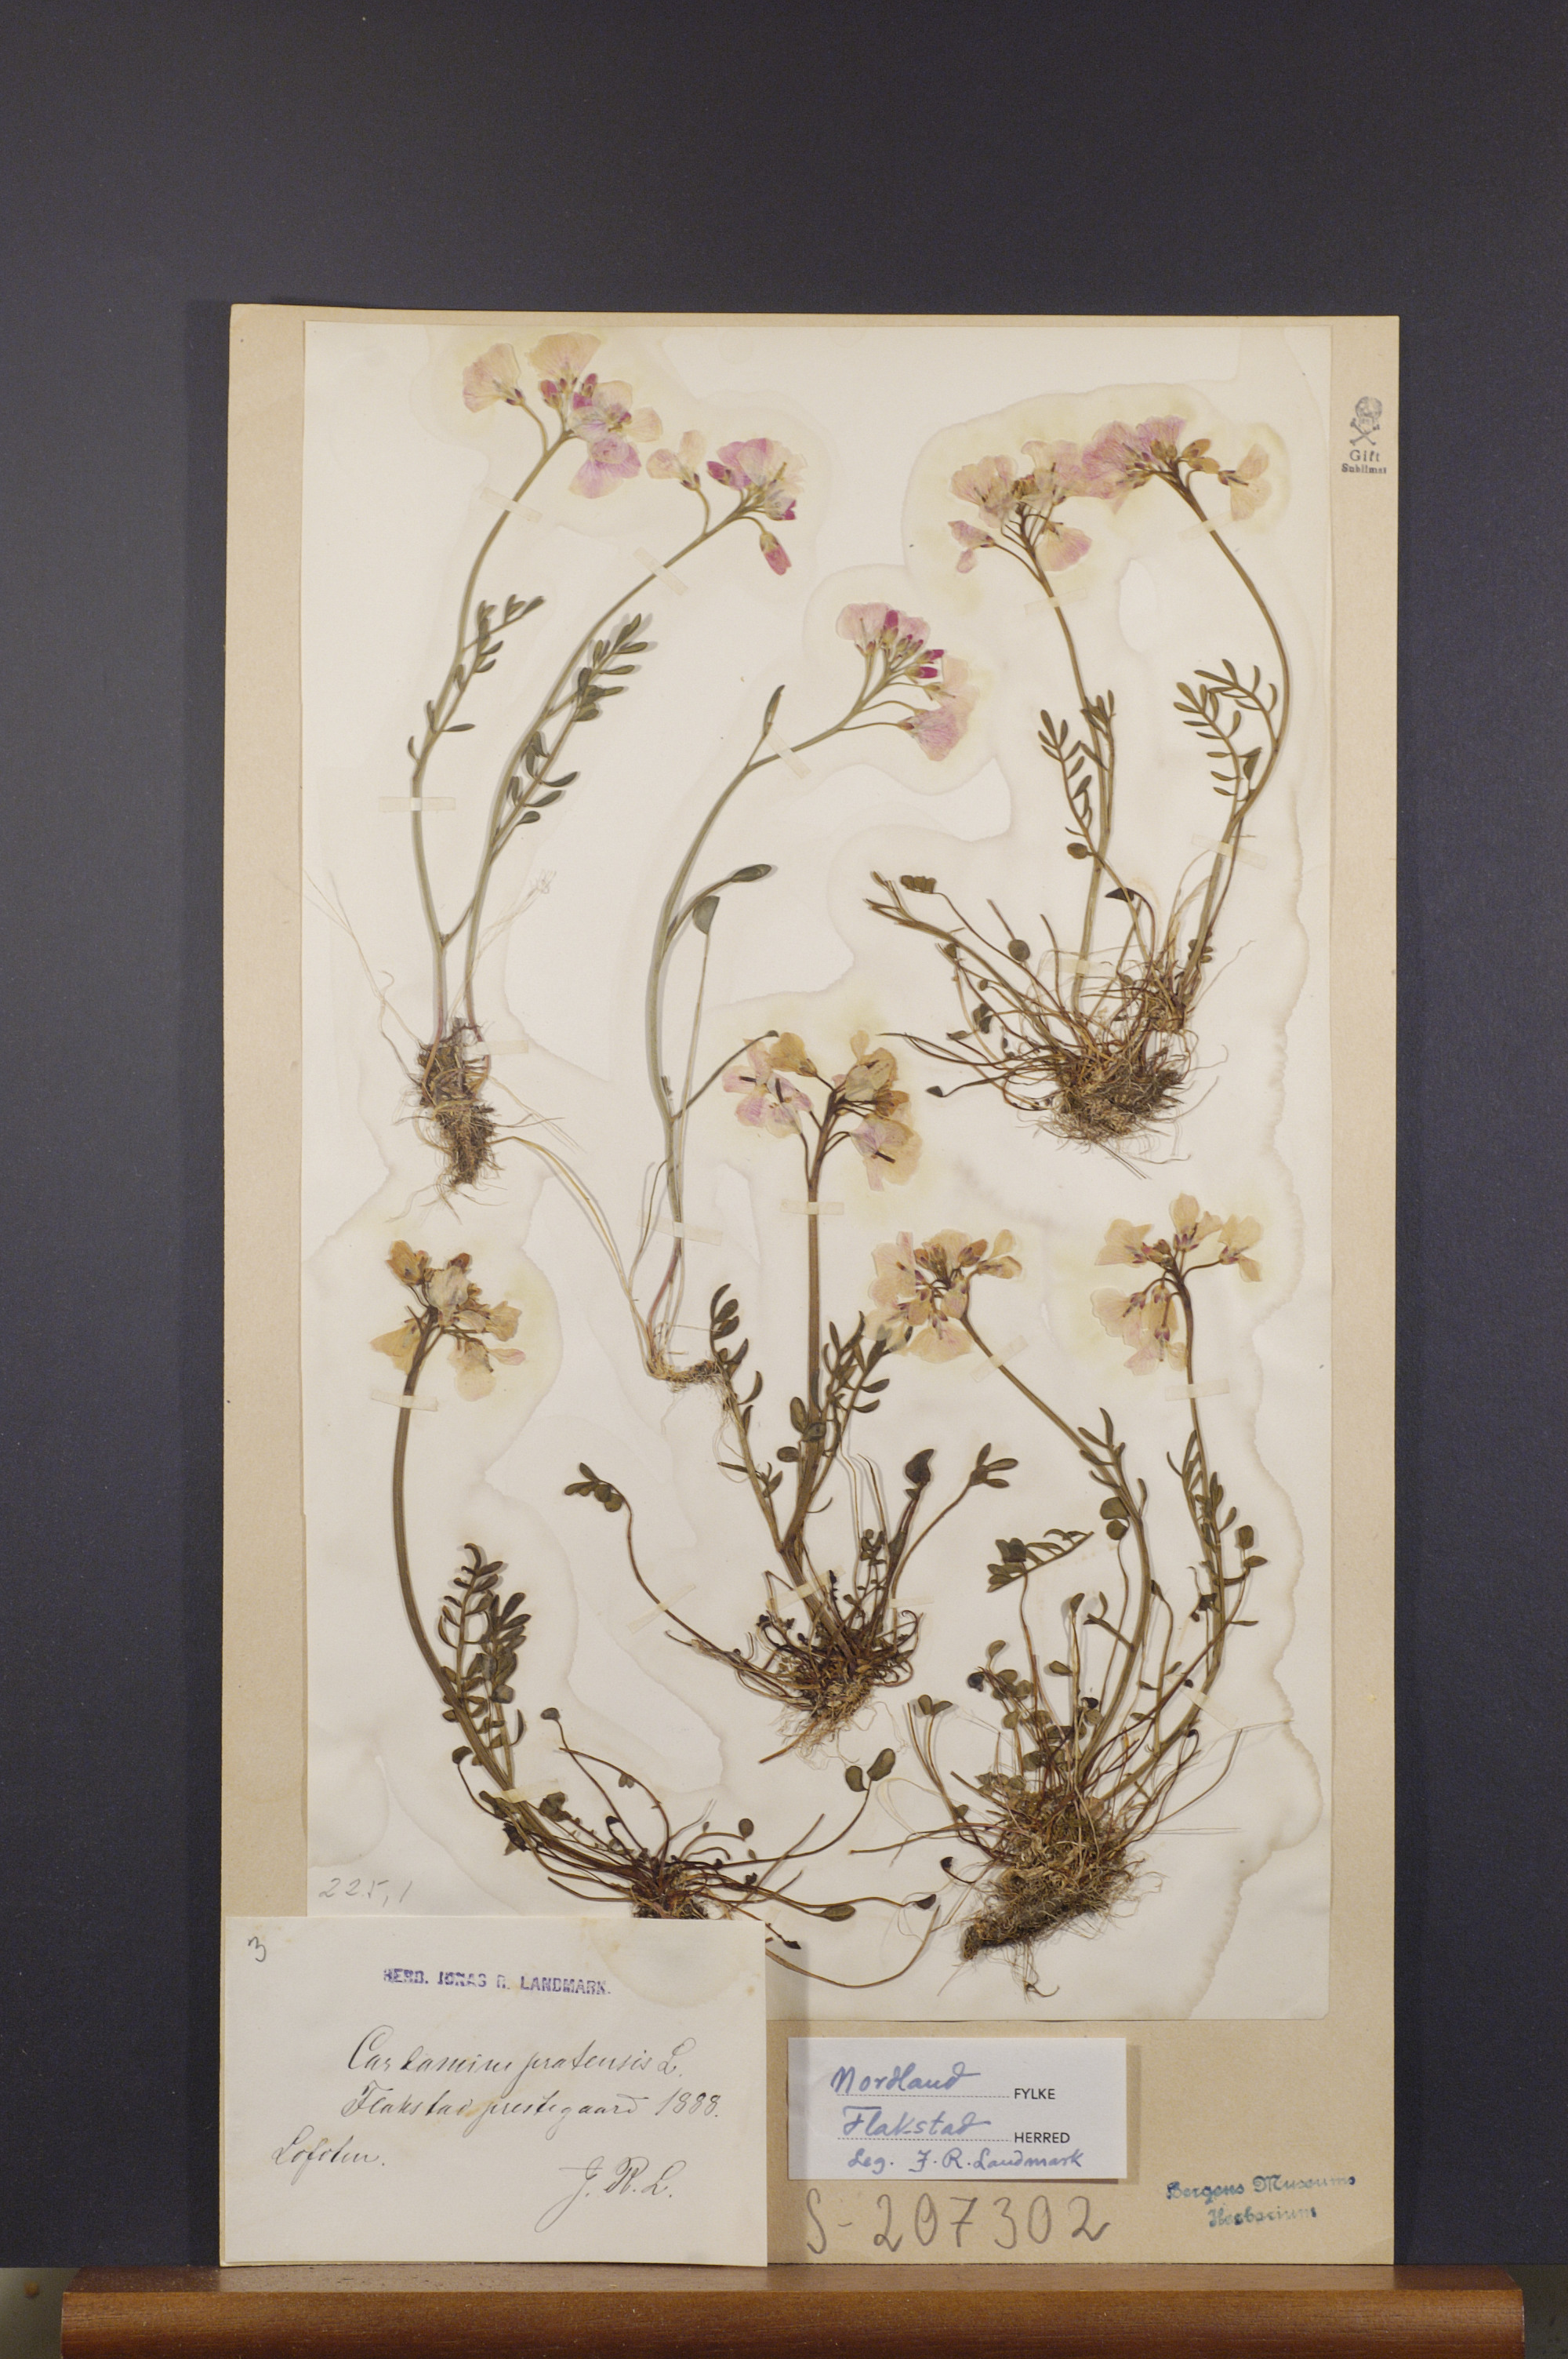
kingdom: Plantae
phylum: Tracheophyta
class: Magnoliopsida
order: Brassicales
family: Brassicaceae
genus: Cardamine
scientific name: Cardamine pratensis
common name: Cuckoo flower
